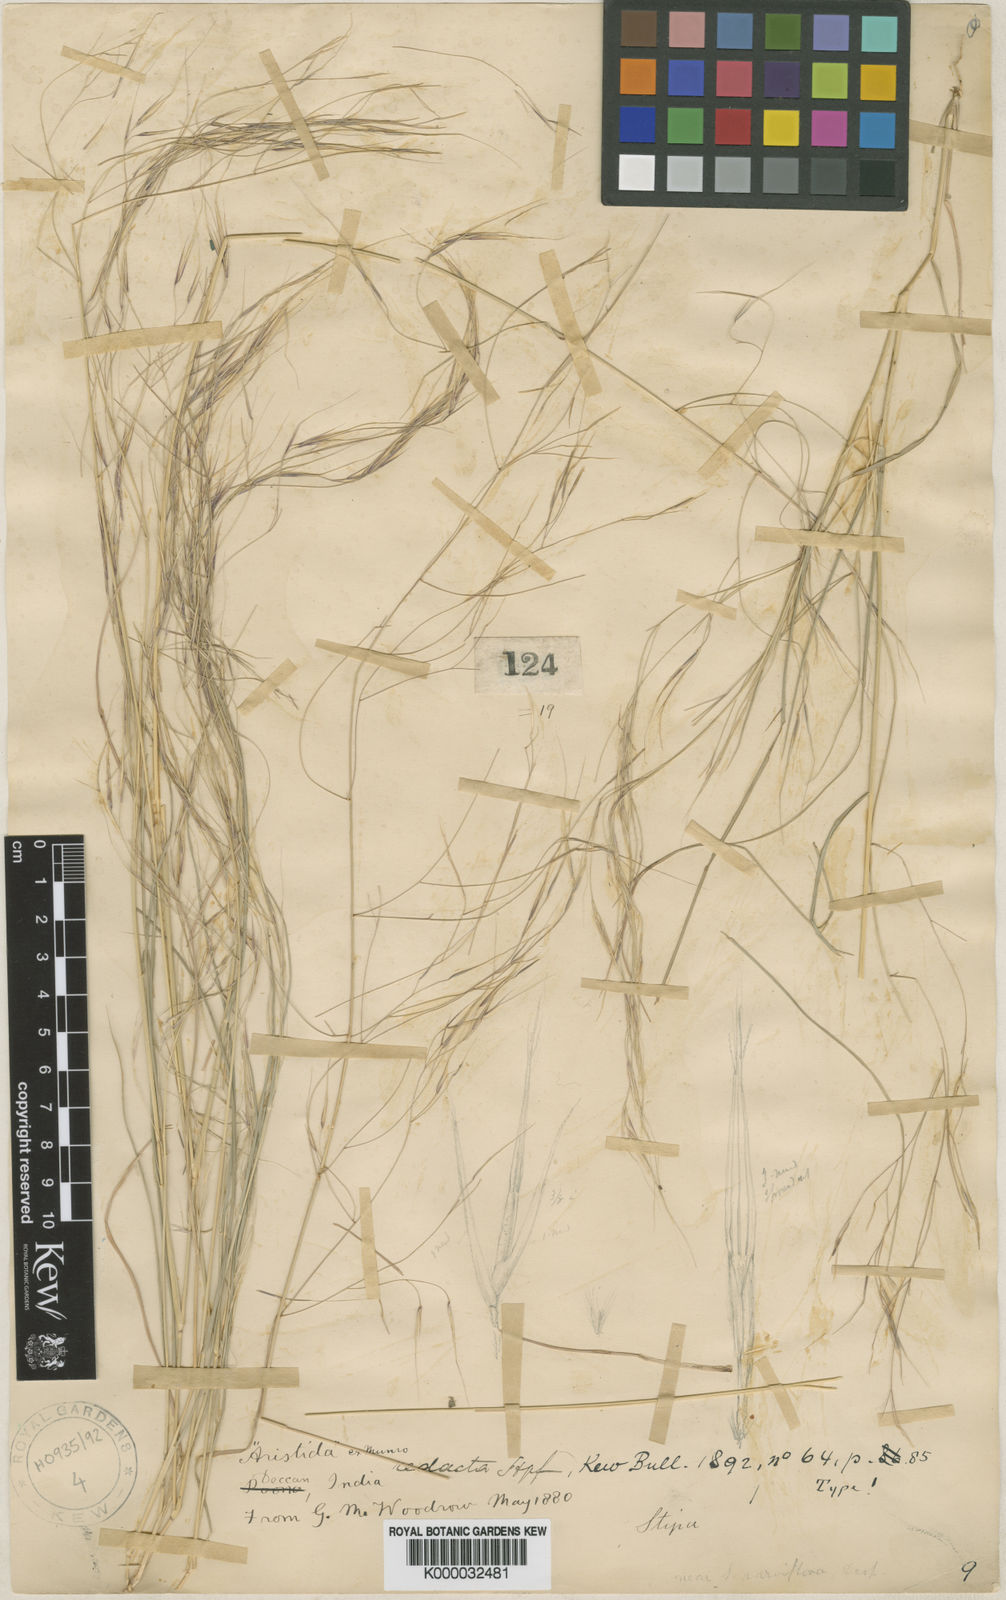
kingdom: Plantae
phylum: Tracheophyta
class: Liliopsida
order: Poales
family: Poaceae
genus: Aristida
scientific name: Aristida redacta
